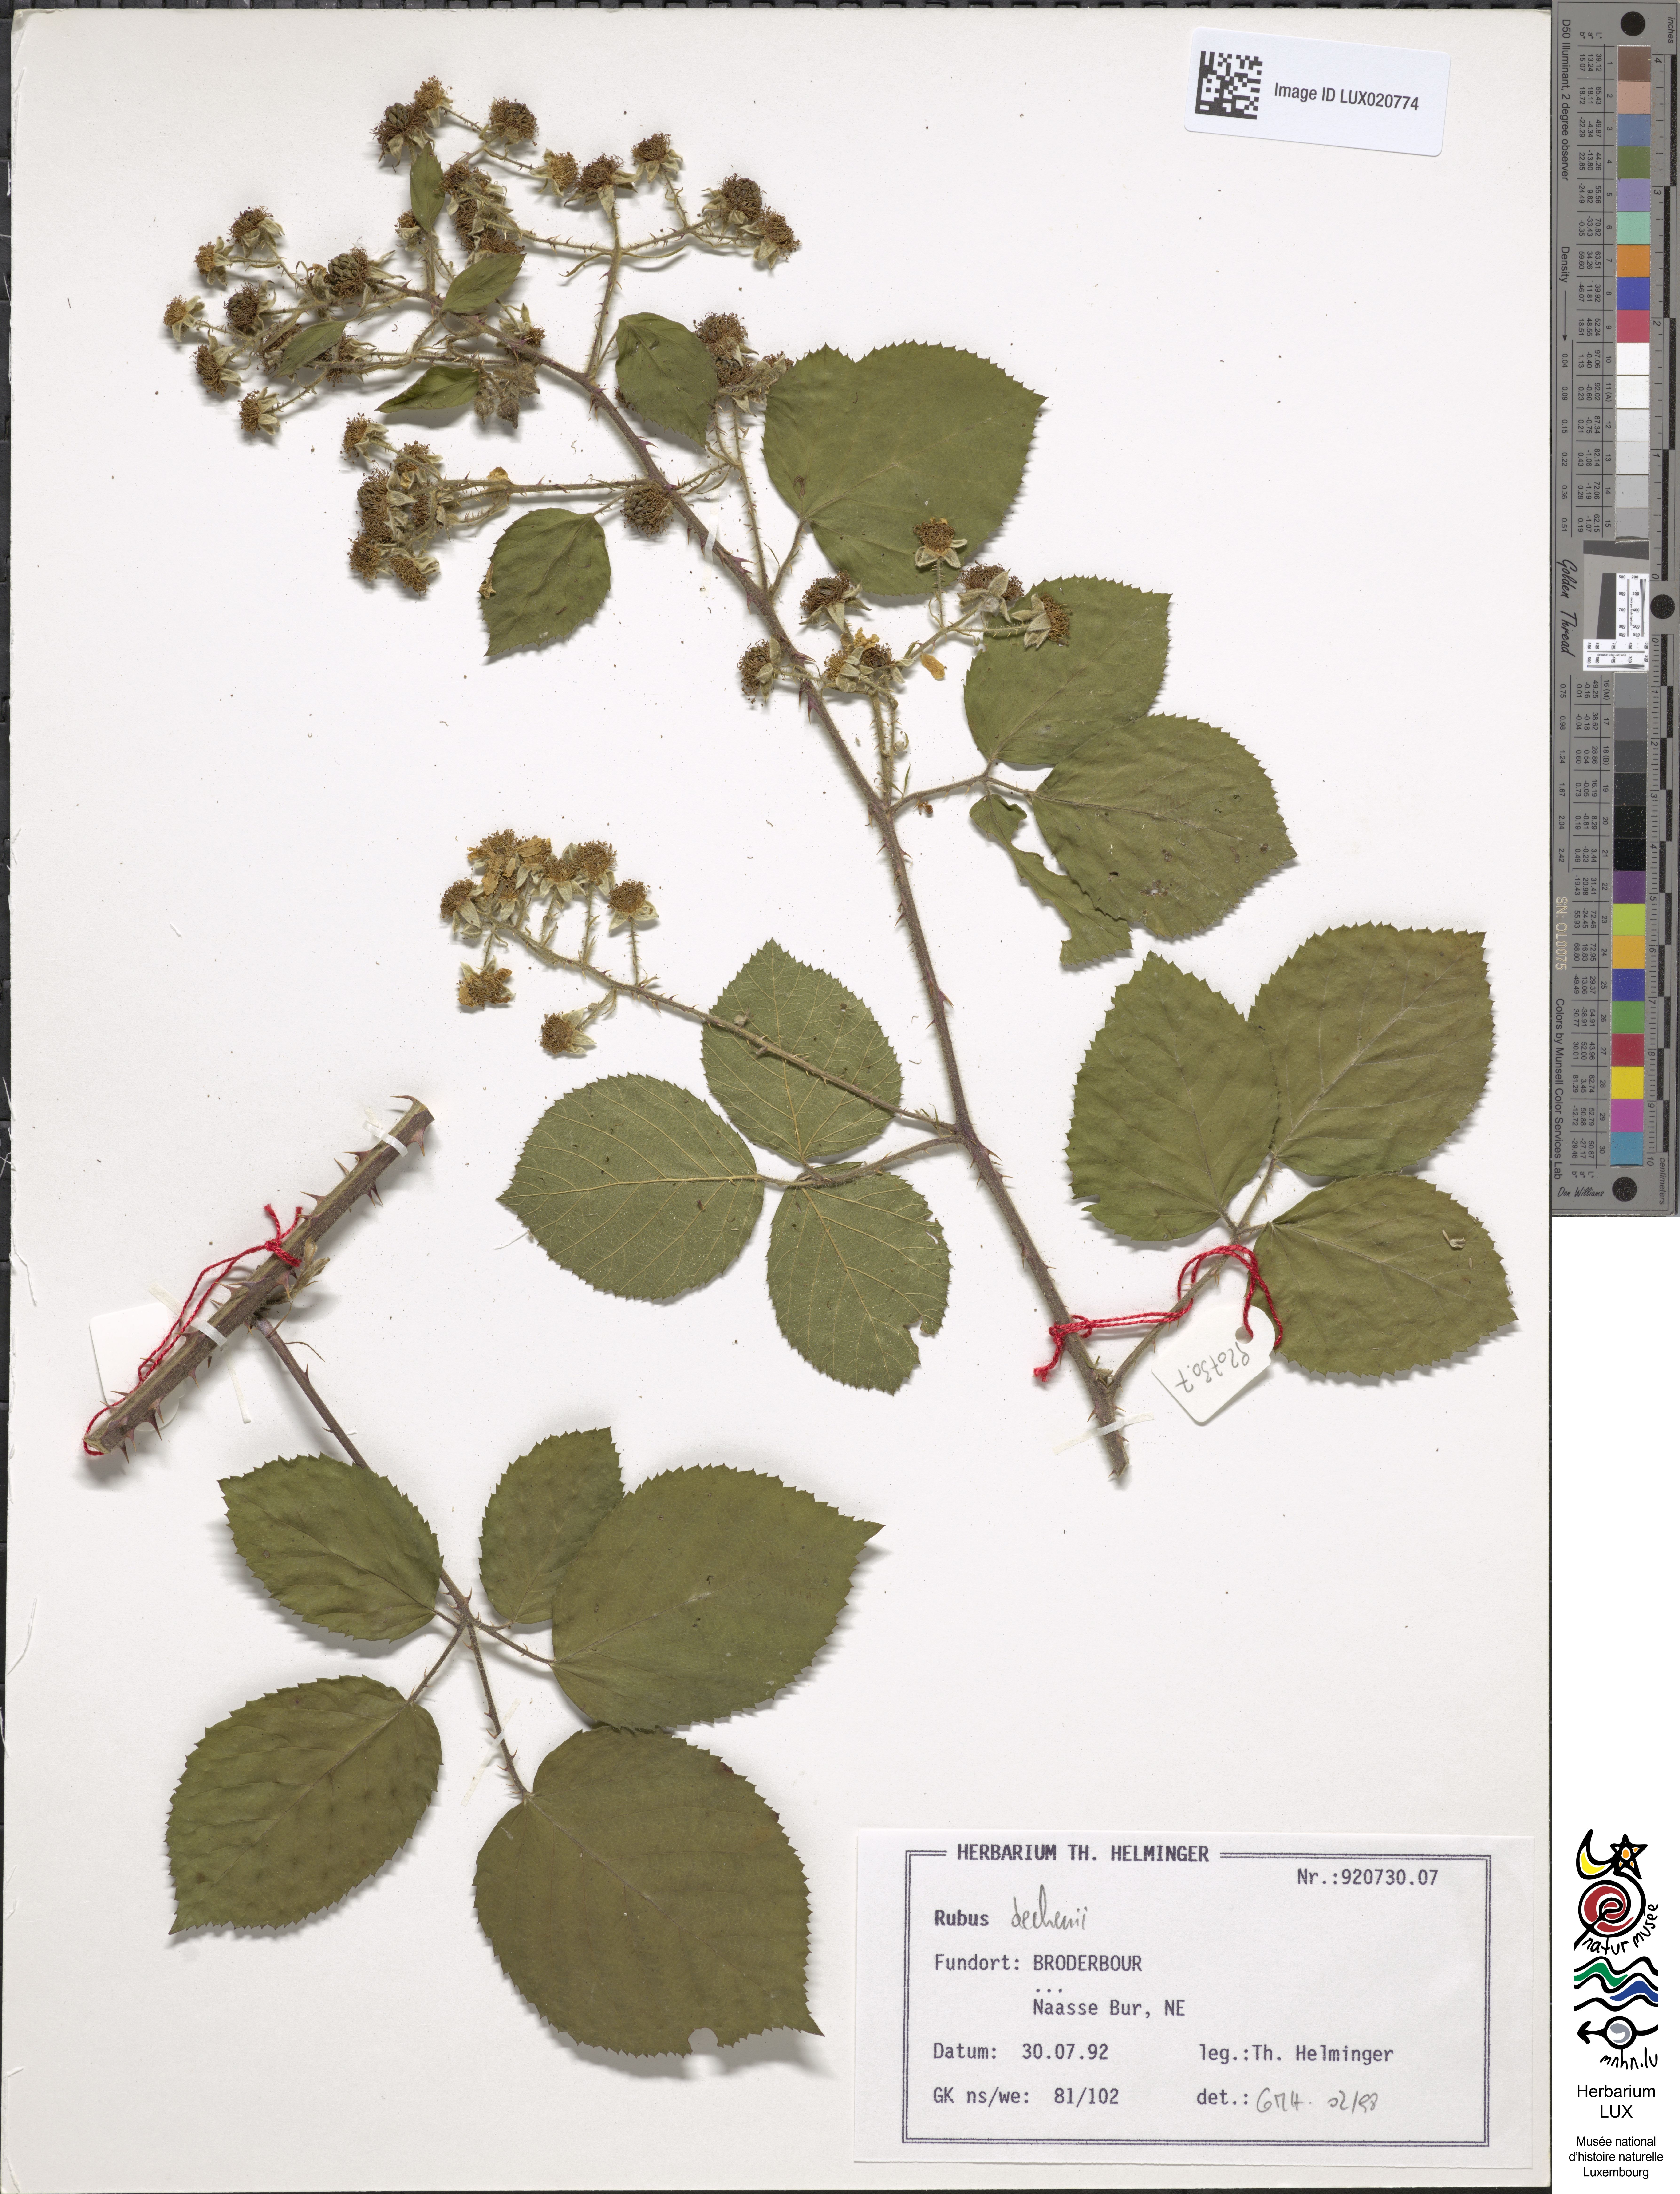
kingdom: Plantae
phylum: Tracheophyta
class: Magnoliopsida
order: Rosales
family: Rosaceae
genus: Rubus
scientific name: Rubus dechenii
